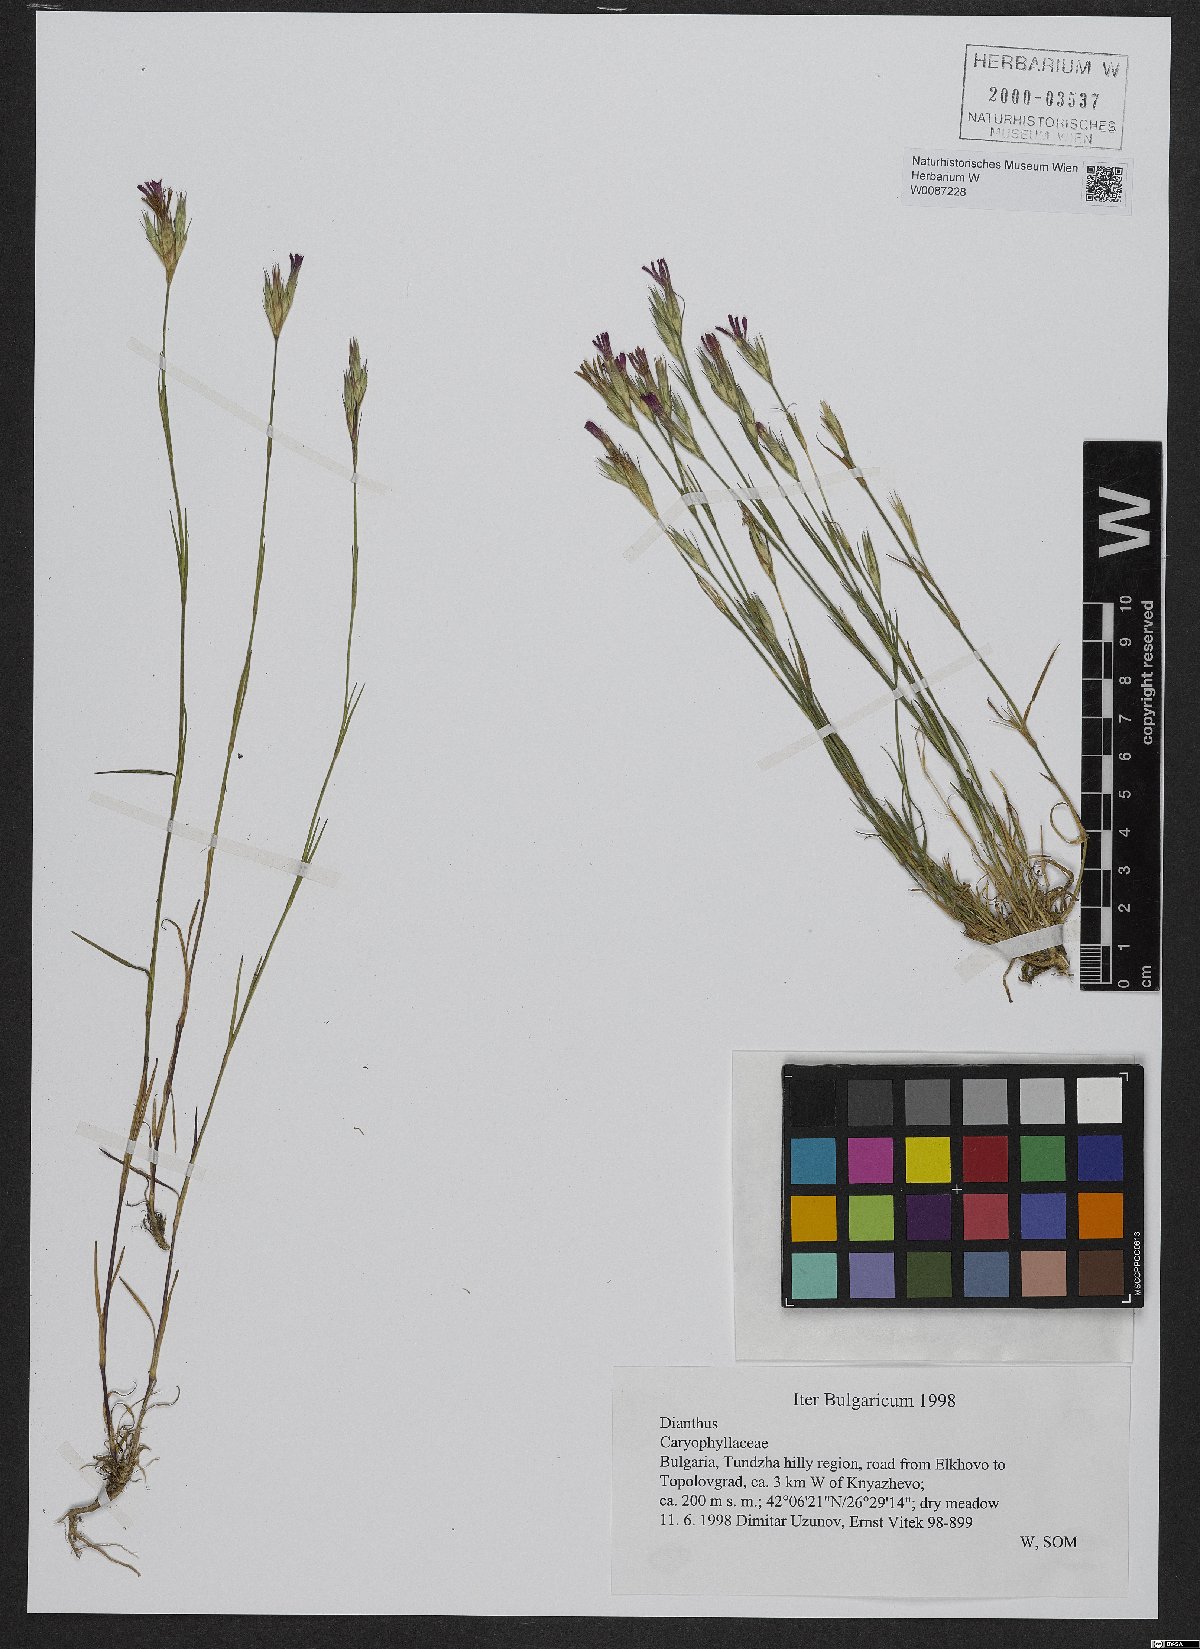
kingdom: Plantae
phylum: Tracheophyta
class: Magnoliopsida
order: Caryophyllales
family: Caryophyllaceae
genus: Dianthus
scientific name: Dianthus
